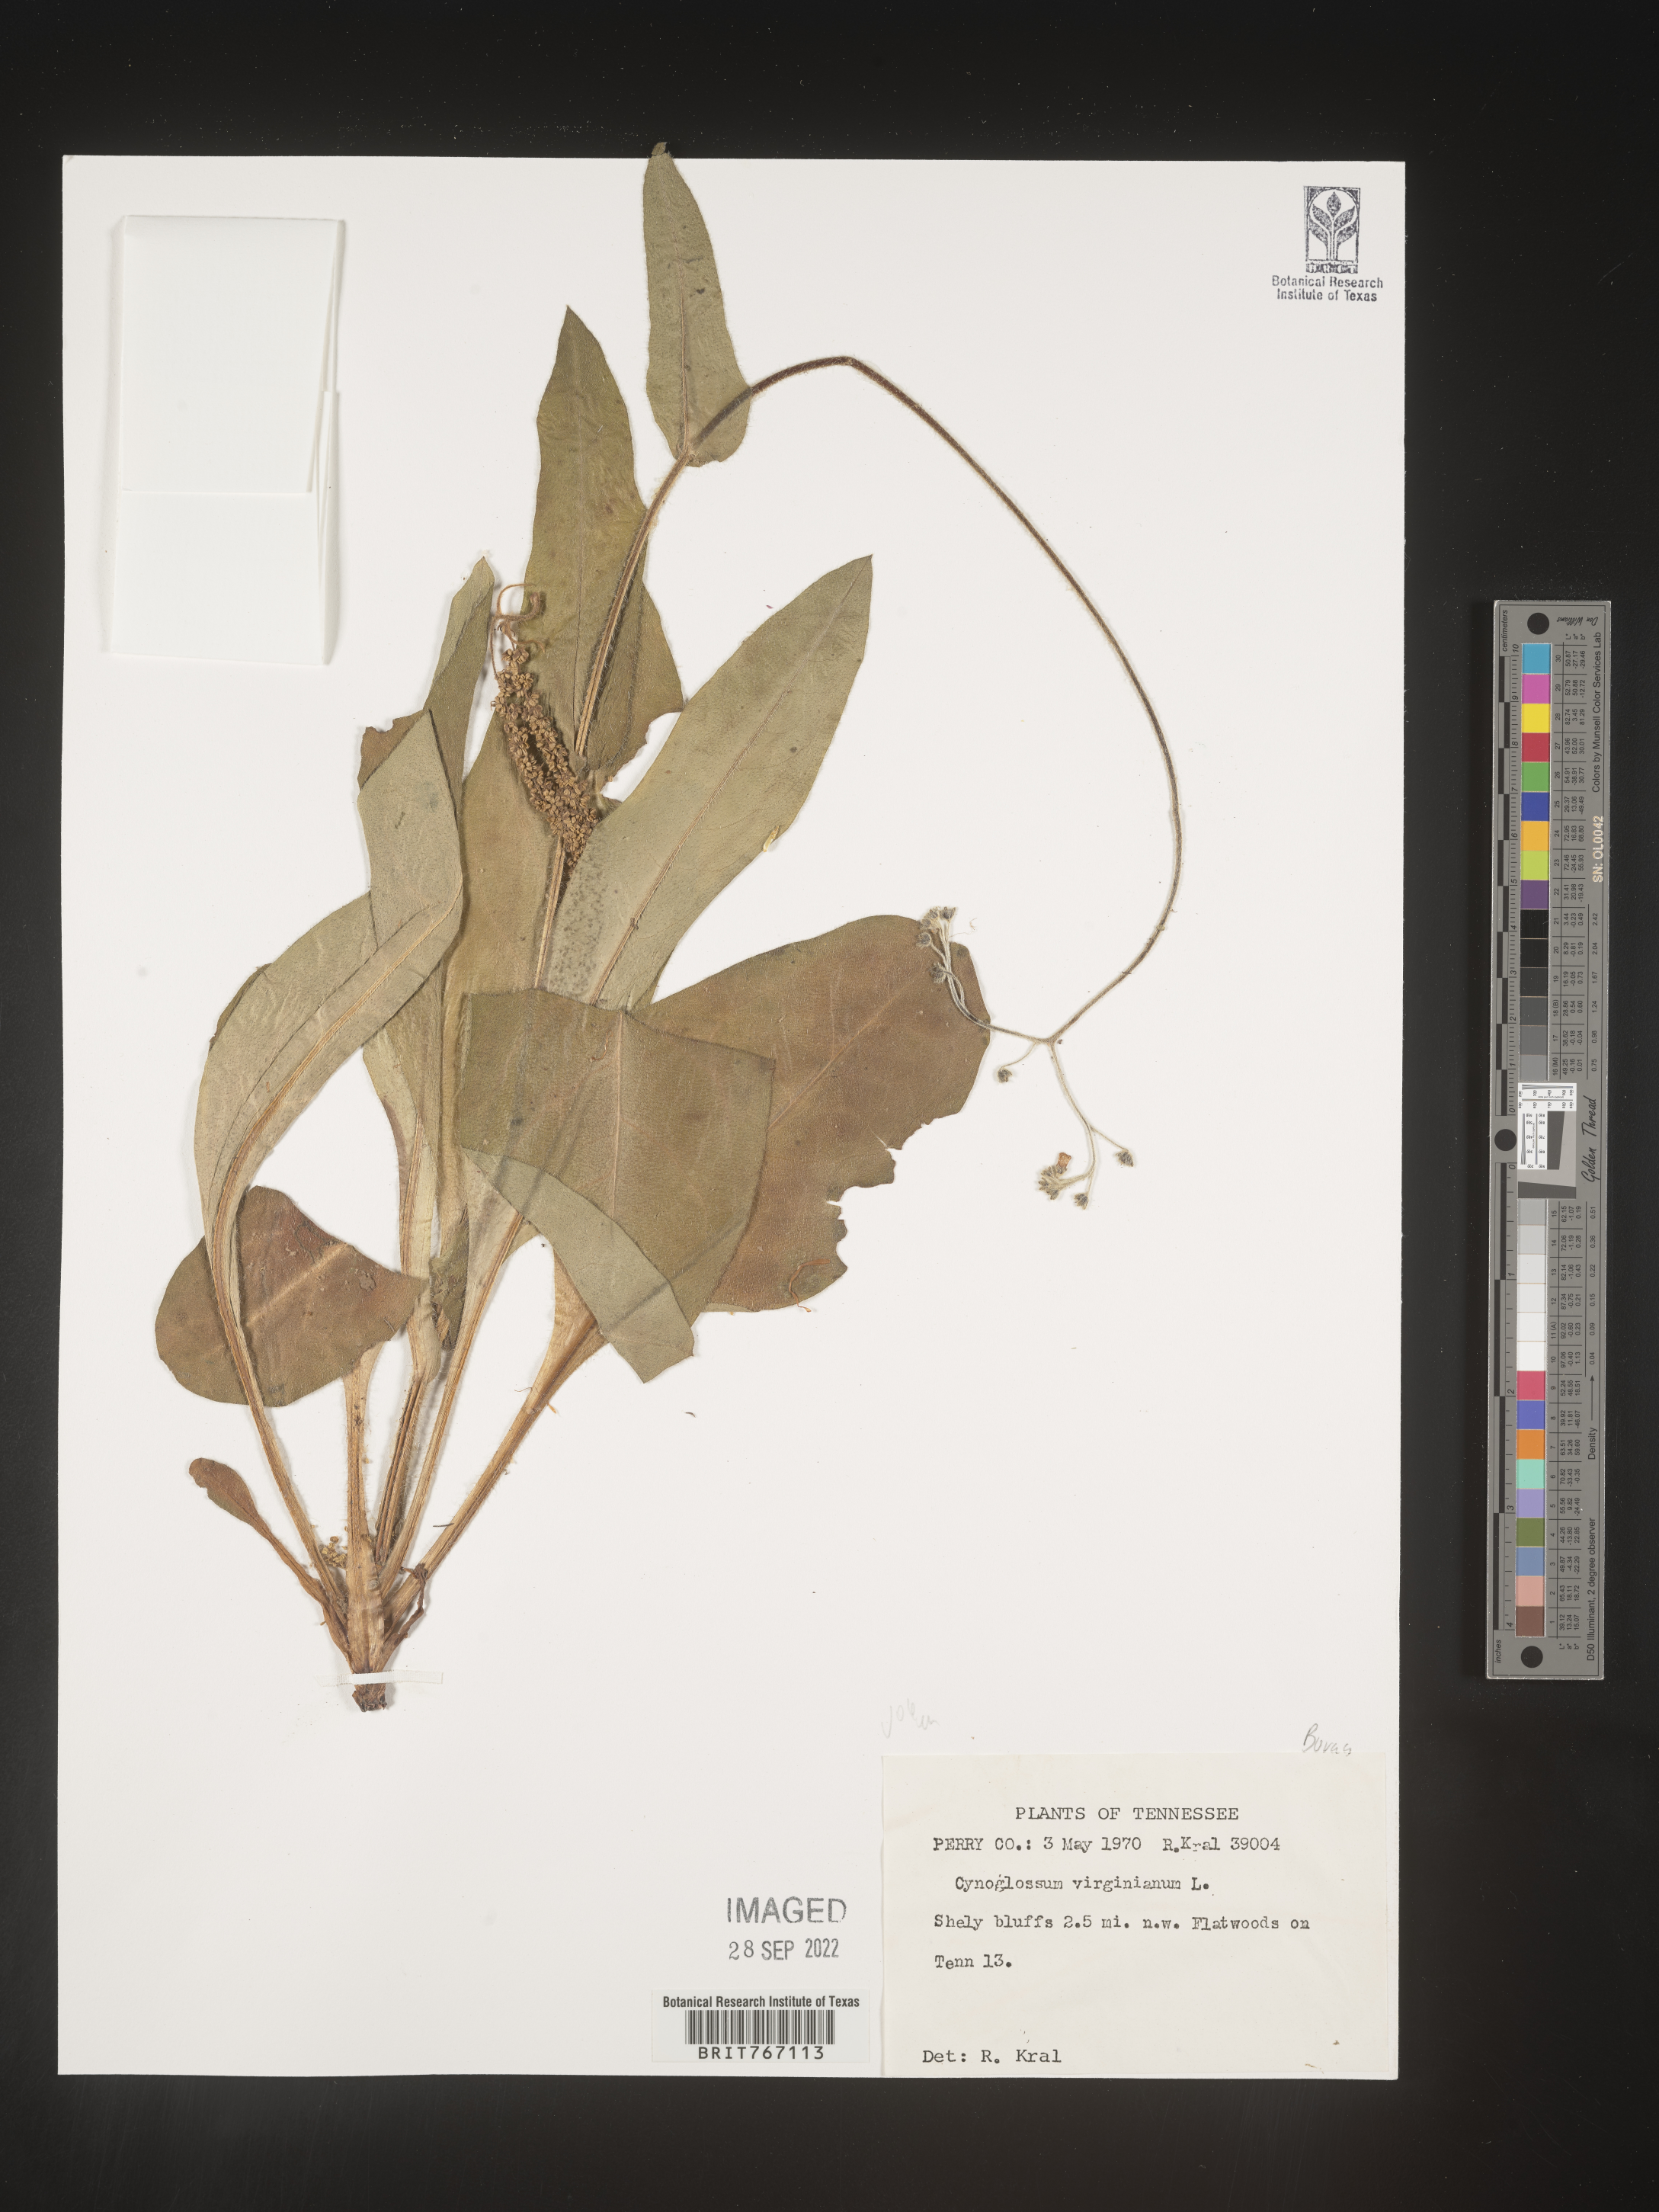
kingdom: Plantae
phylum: Tracheophyta
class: Magnoliopsida
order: Boraginales
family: Boraginaceae
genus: Andersonglossum
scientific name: Andersonglossum virginianum
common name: Wild comfrey
